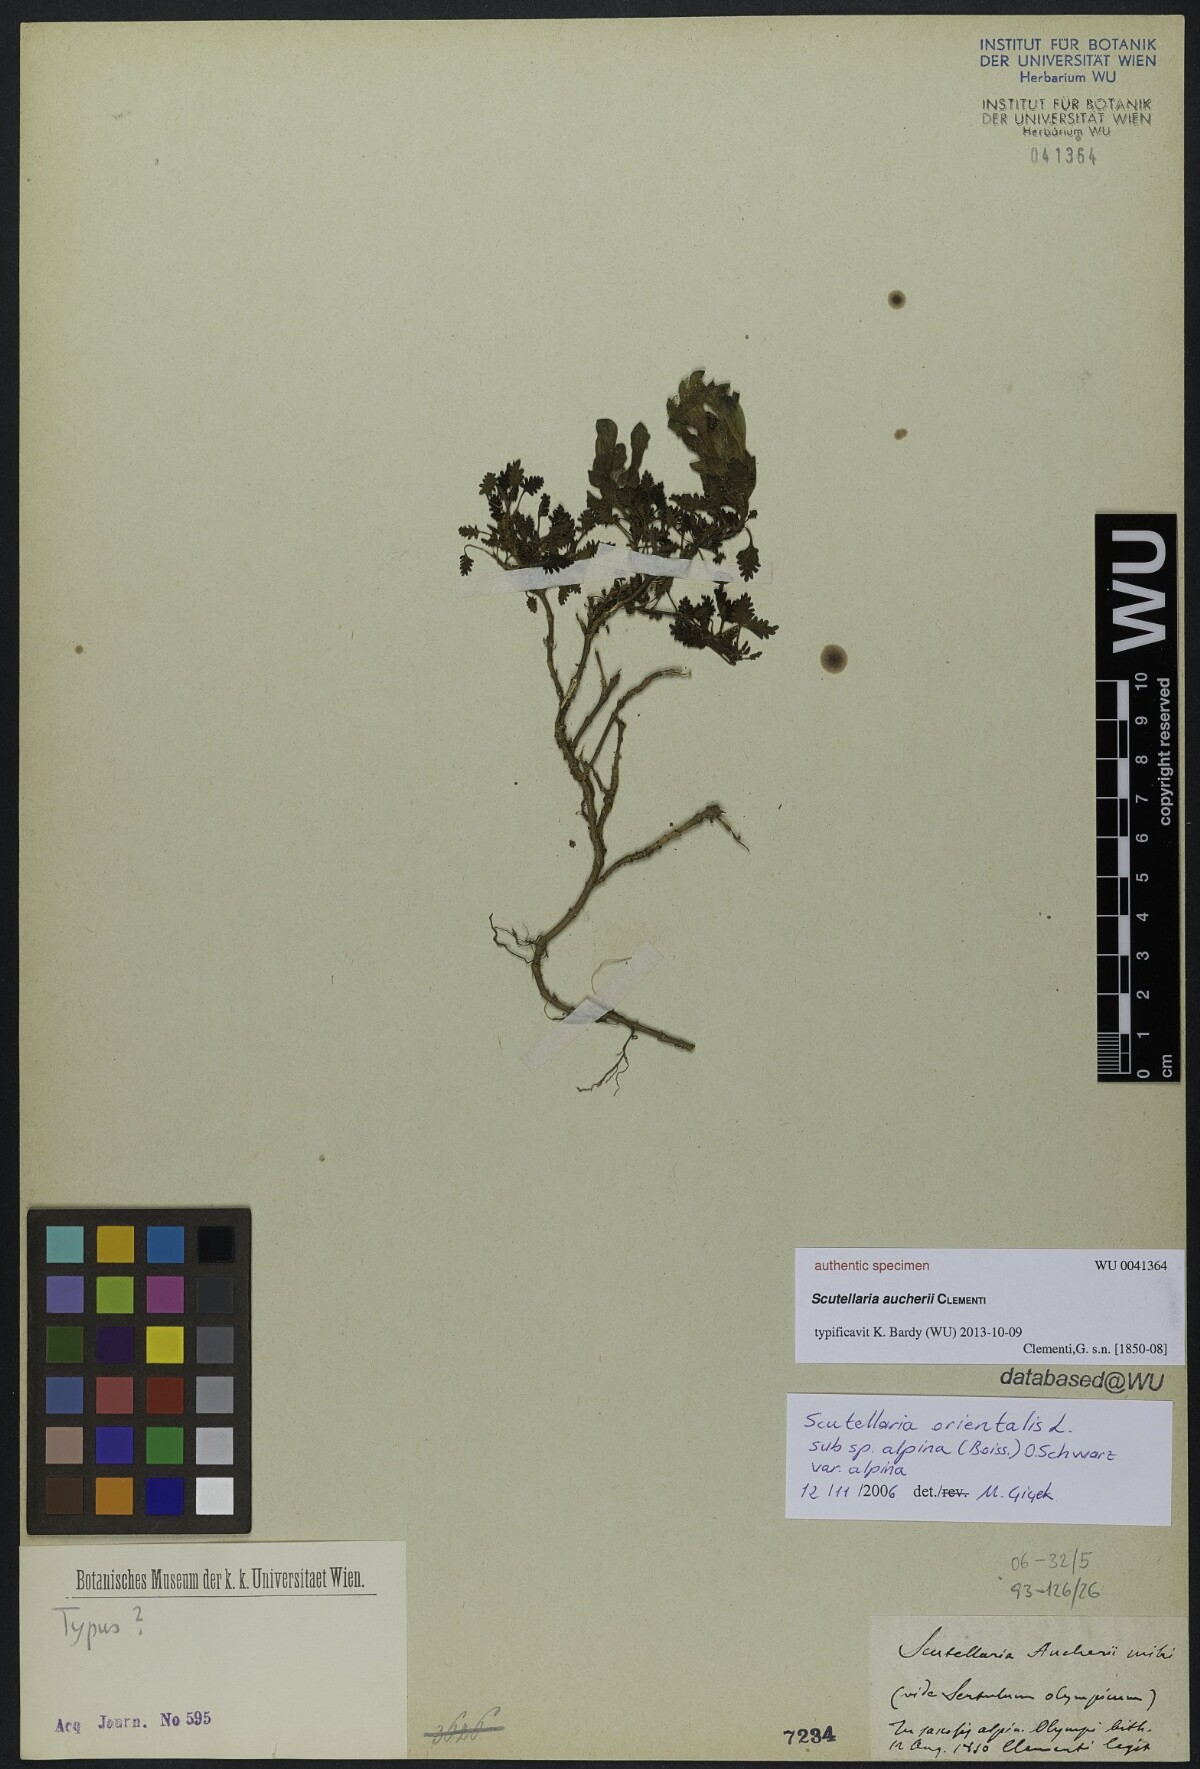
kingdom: Plantae
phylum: Tracheophyta
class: Magnoliopsida
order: Lamiales
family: Lamiaceae
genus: Scutellaria
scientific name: Scutellaria
